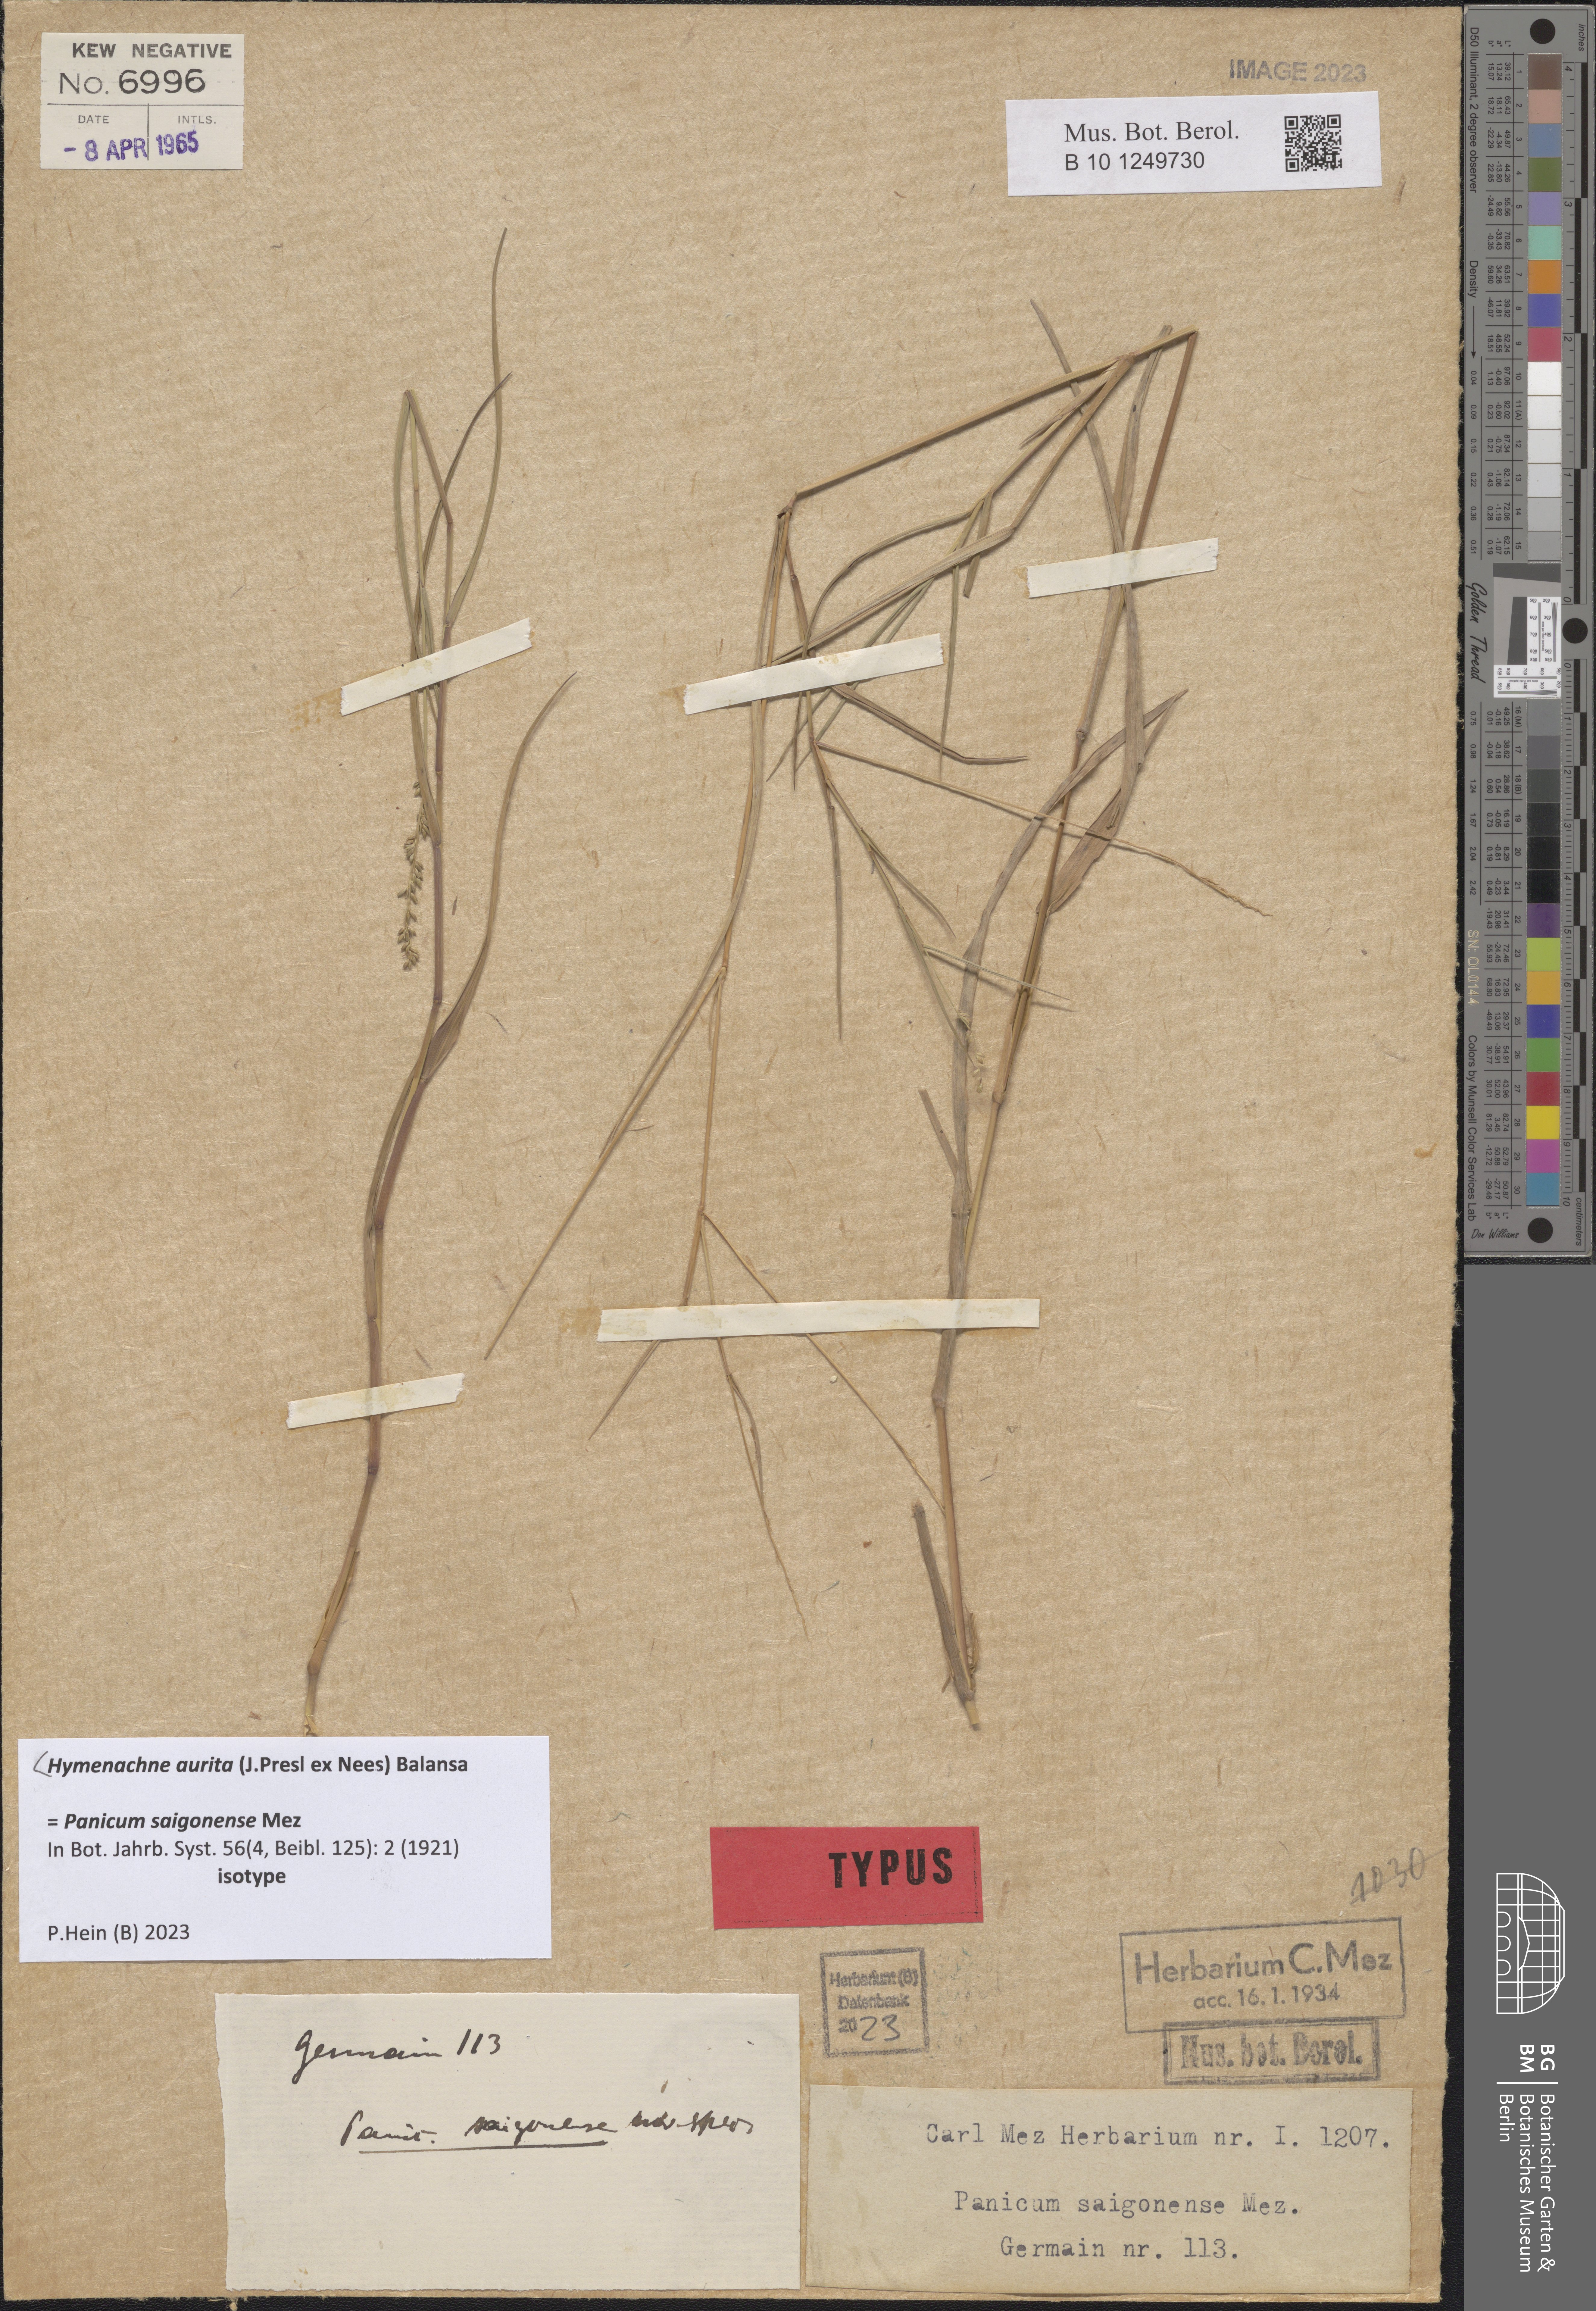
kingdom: Plantae
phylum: Tracheophyta
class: Liliopsida
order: Poales
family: Poaceae
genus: Hymenachne
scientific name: Hymenachne aurita
